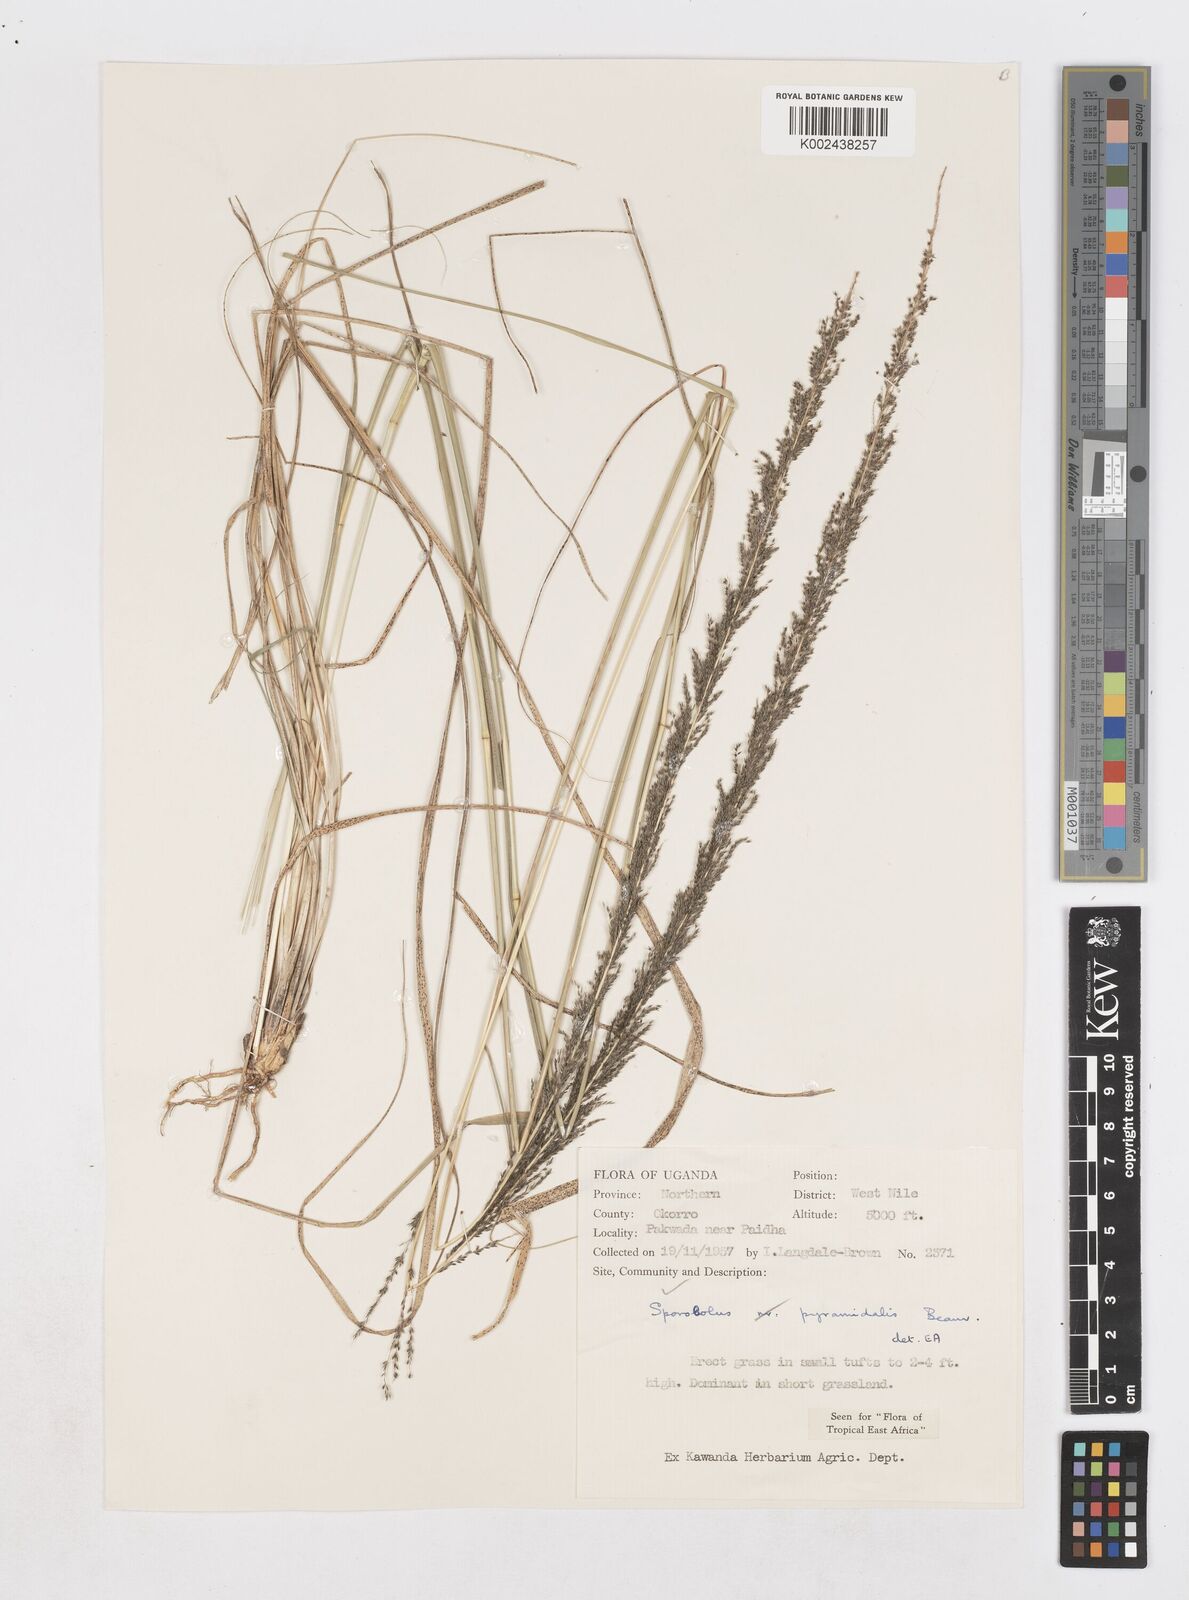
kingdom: Plantae
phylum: Tracheophyta
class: Liliopsida
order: Poales
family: Poaceae
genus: Sporobolus
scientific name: Sporobolus pyramidalis
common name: West indian dropseed
